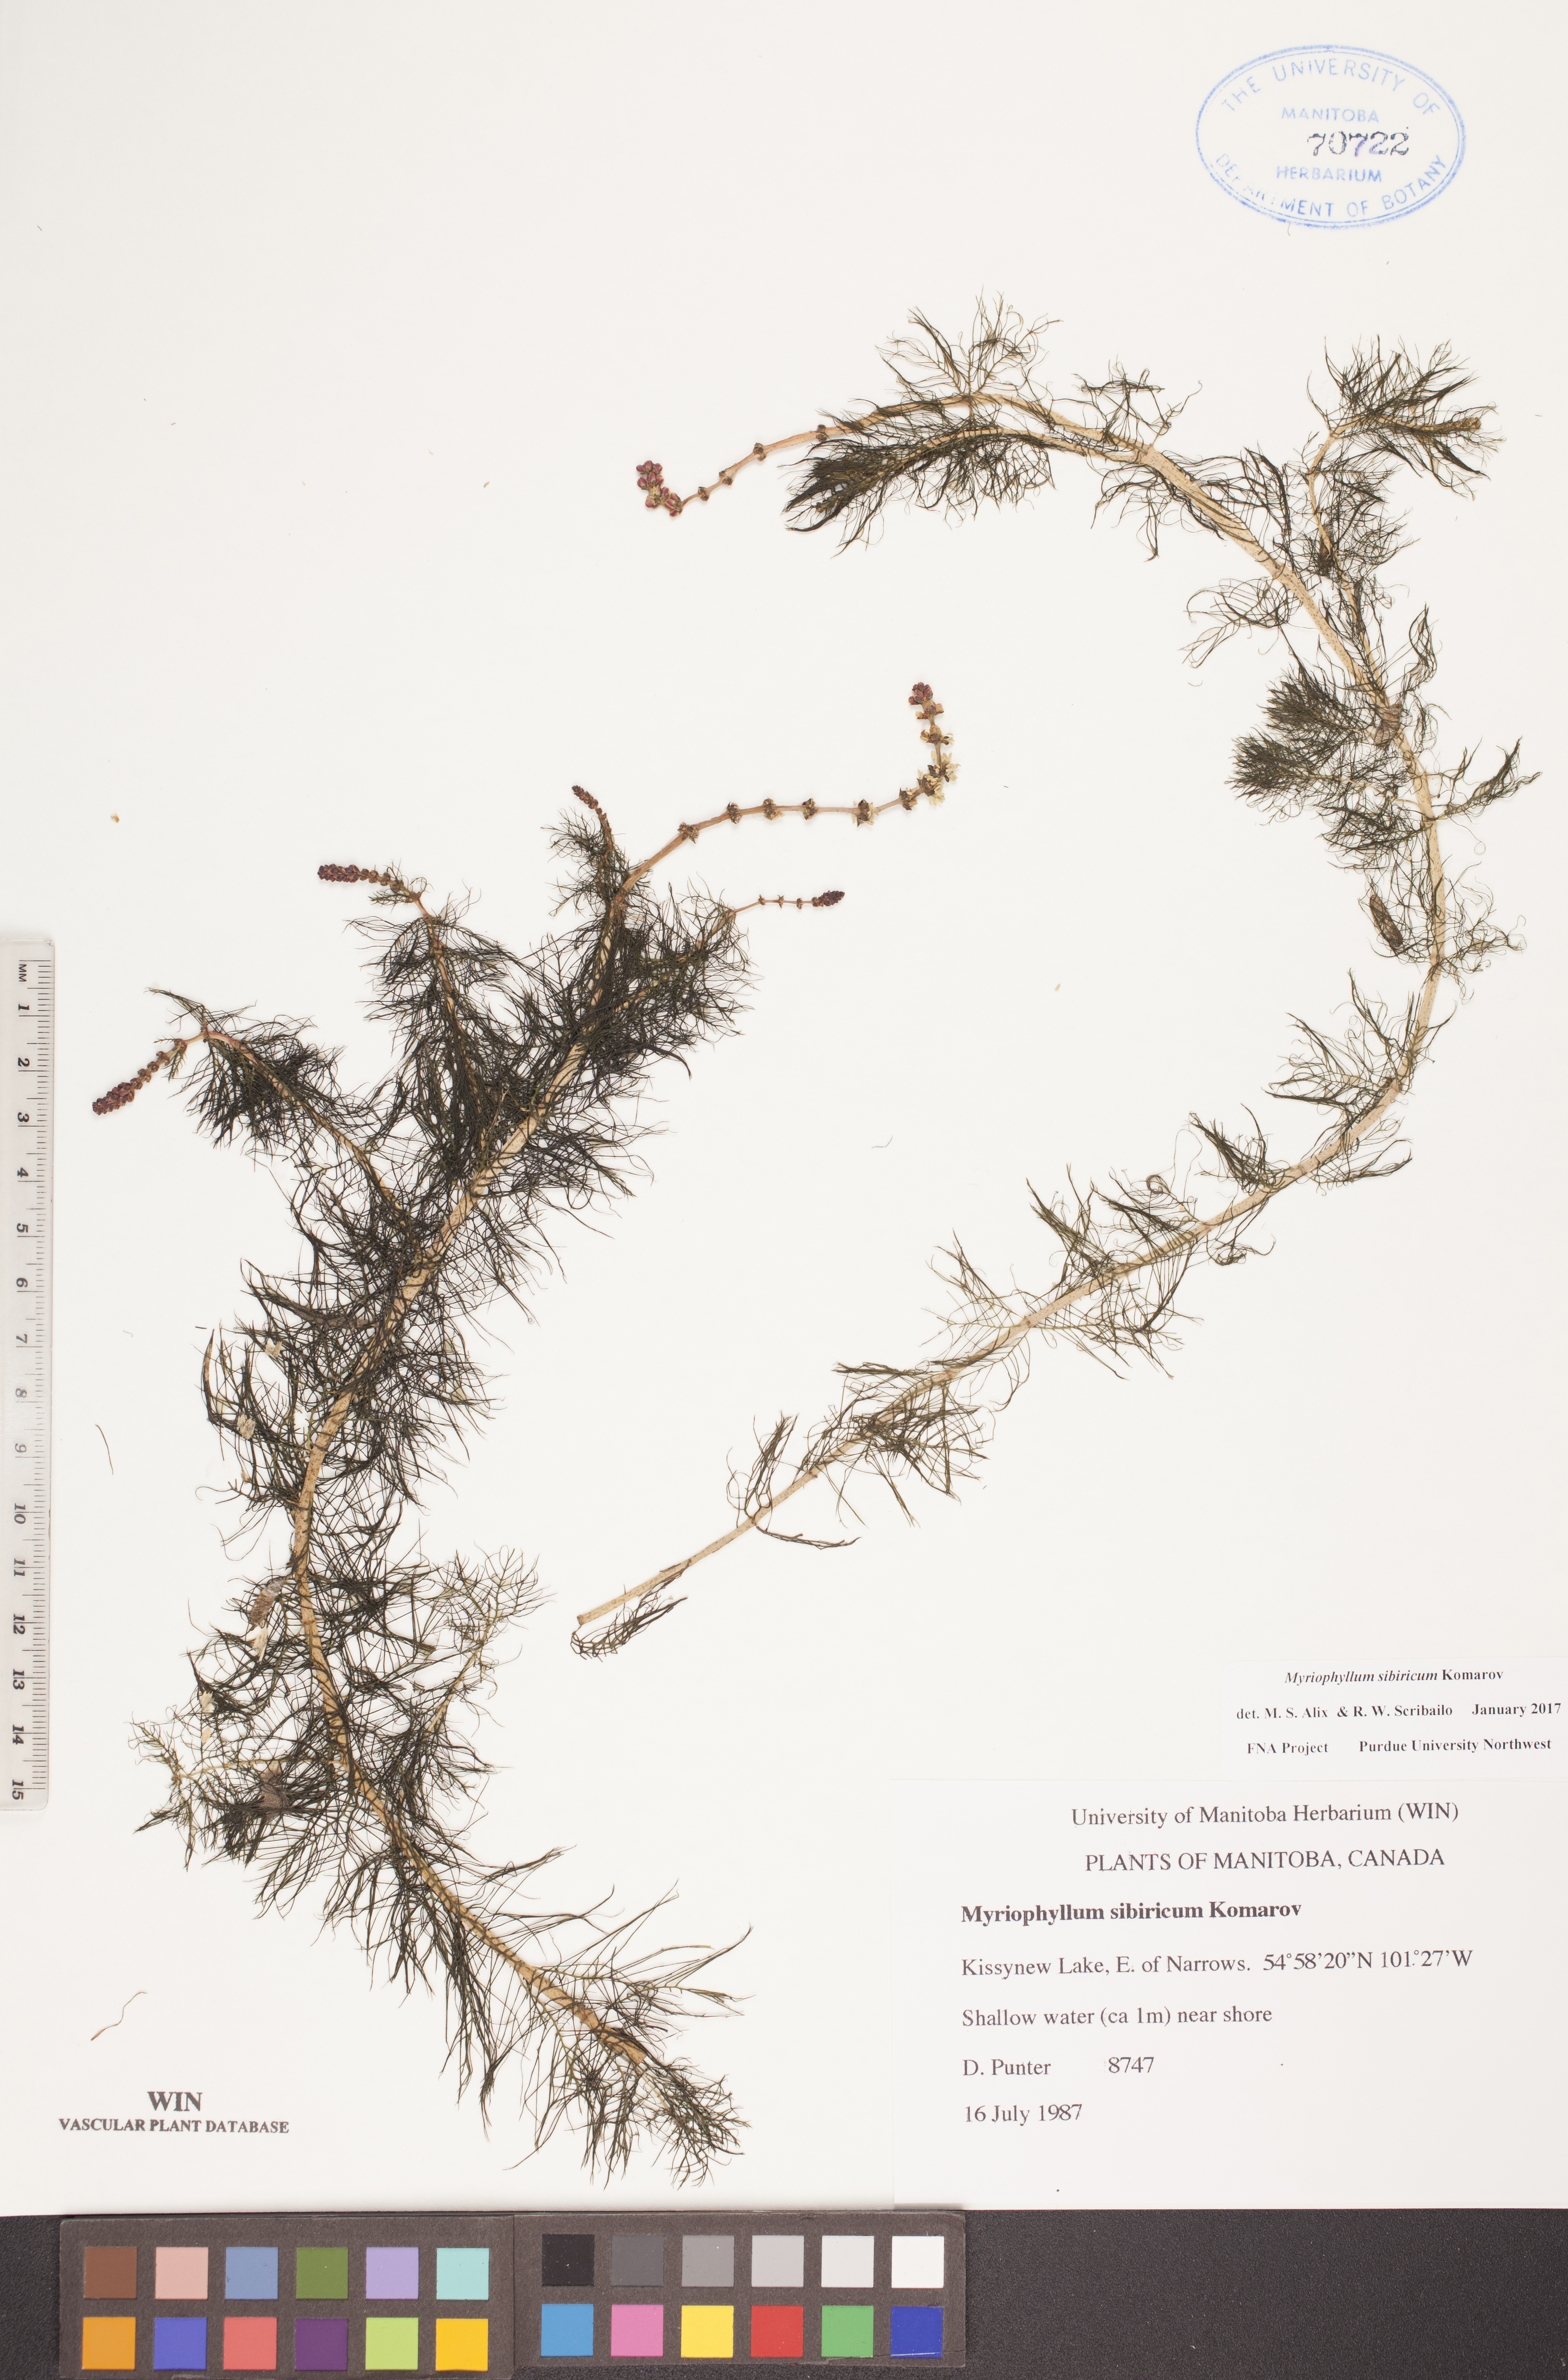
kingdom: Plantae
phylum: Tracheophyta
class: Magnoliopsida
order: Saxifragales
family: Haloragaceae
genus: Myriophyllum
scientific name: Myriophyllum sibiricum
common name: Siberian water-milfoil
